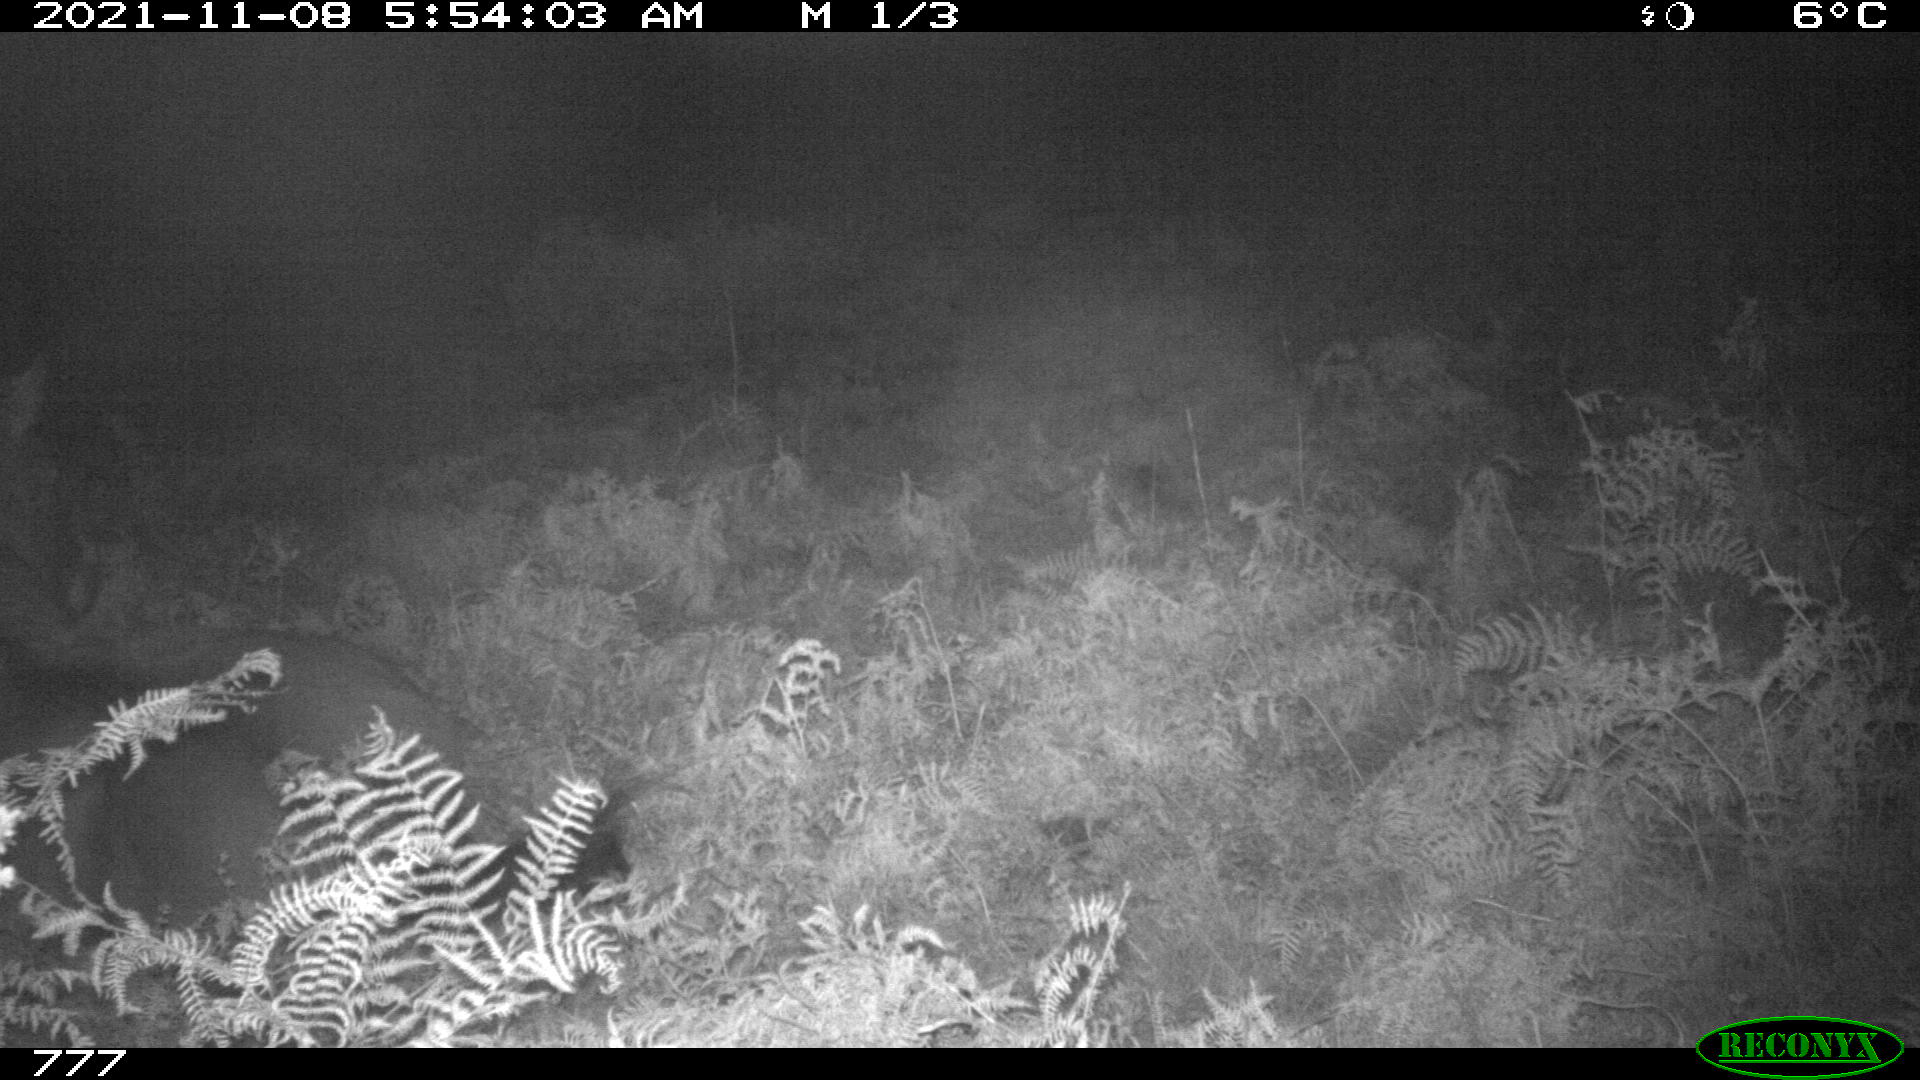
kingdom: Animalia
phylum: Chordata
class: Mammalia
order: Perissodactyla
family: Equidae
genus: Equus
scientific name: Equus caballus
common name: Horse
